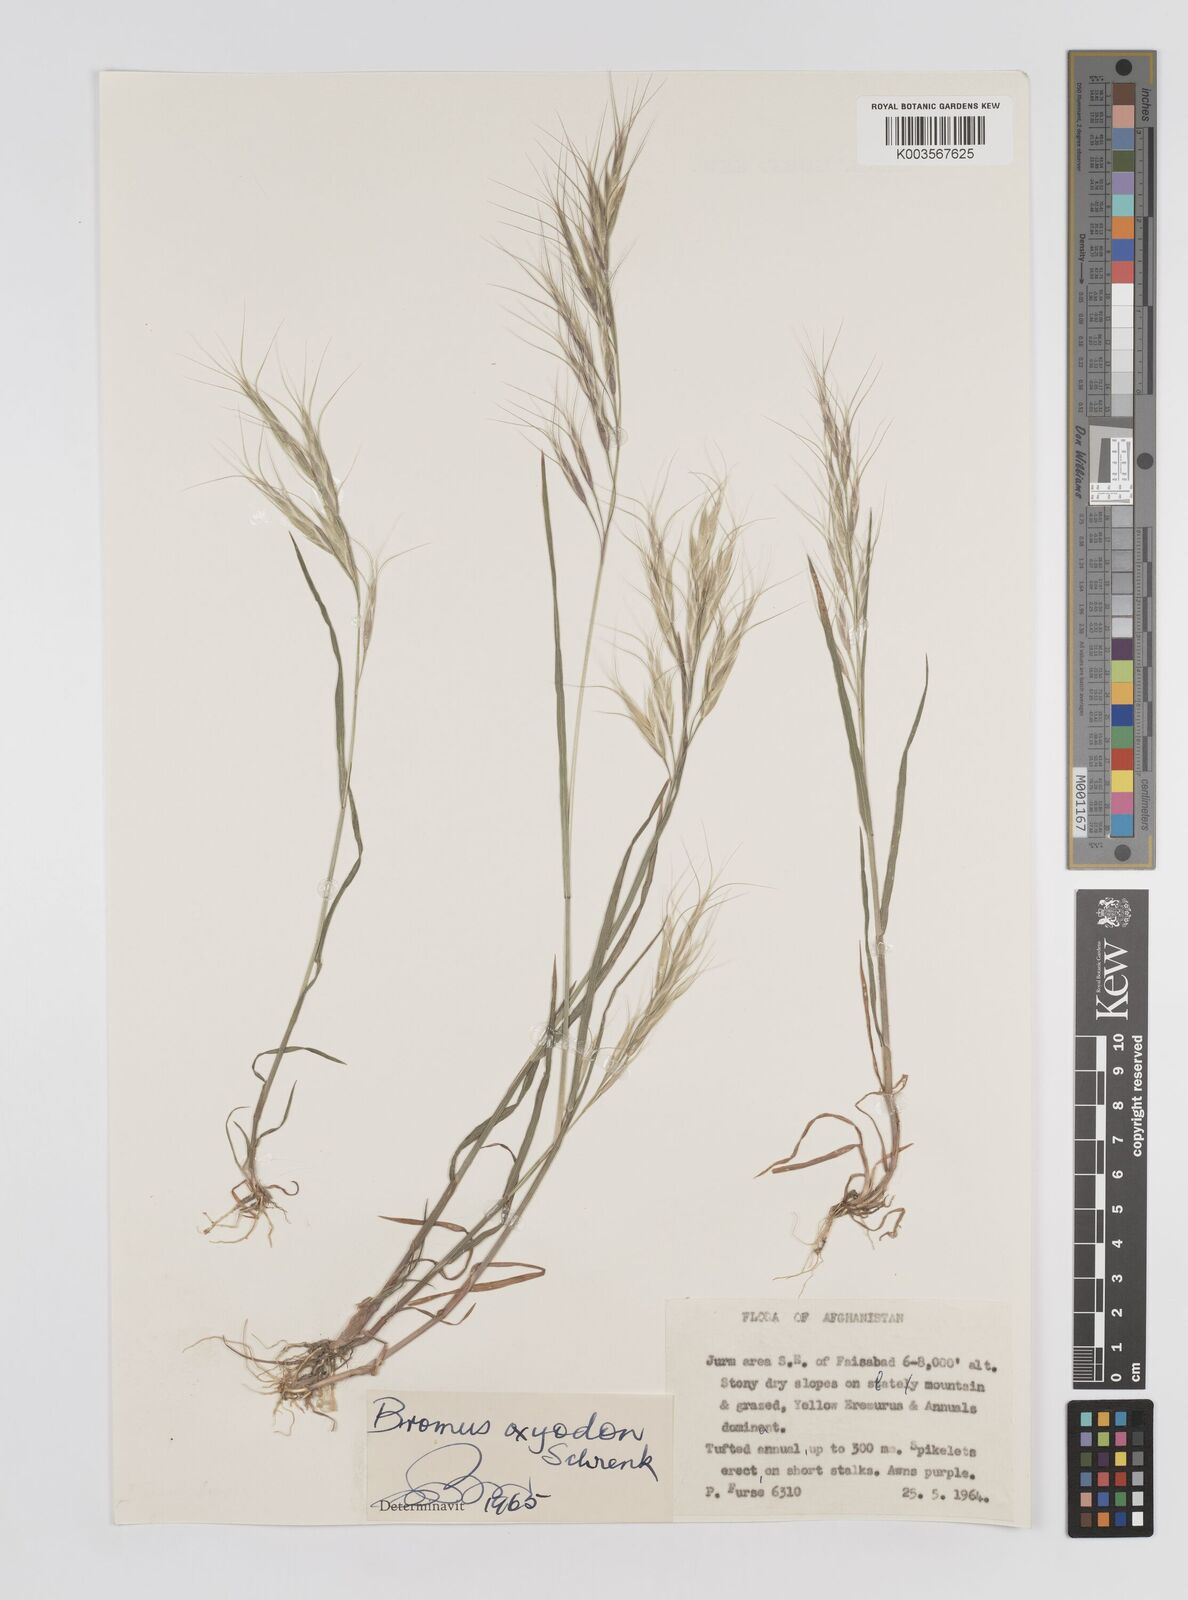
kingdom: Plantae
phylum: Tracheophyta
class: Liliopsida
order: Poales
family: Poaceae
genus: Bromus
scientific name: Bromus oxyodon
